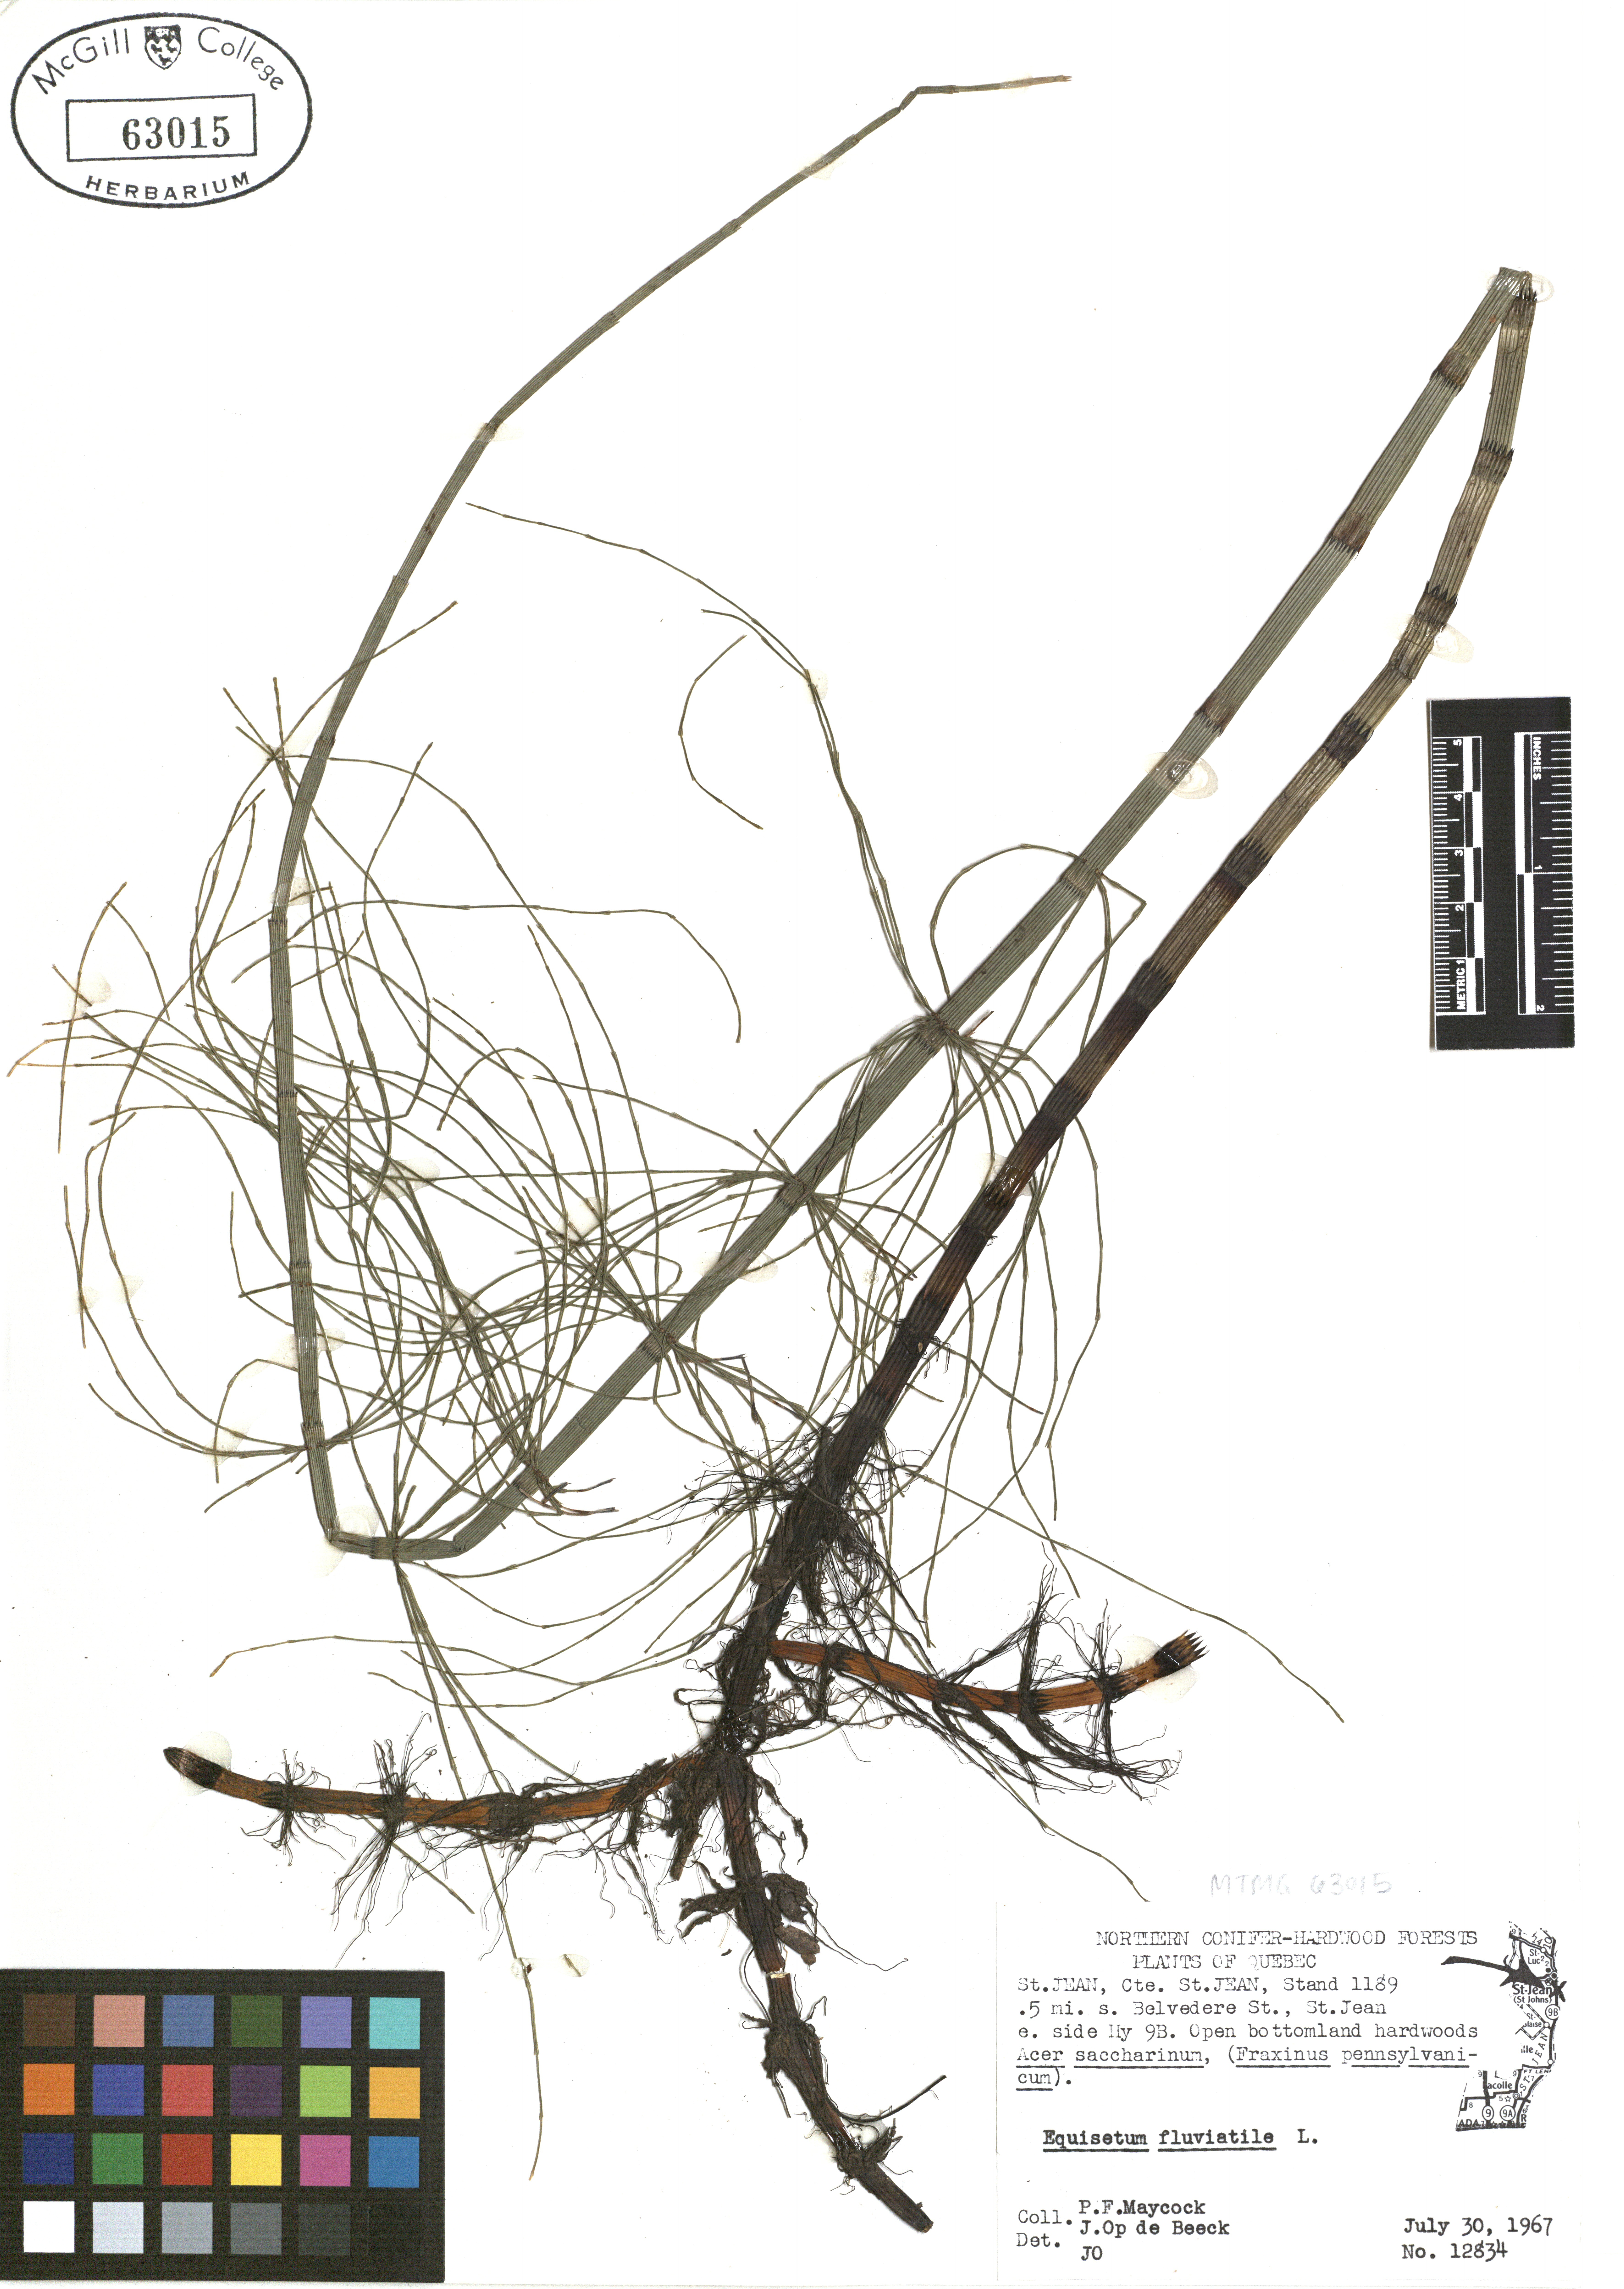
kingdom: Plantae
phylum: Tracheophyta
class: Polypodiopsida
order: Equisetales
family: Equisetaceae
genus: Equisetum
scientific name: Equisetum fluviatile
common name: Water horsetail
